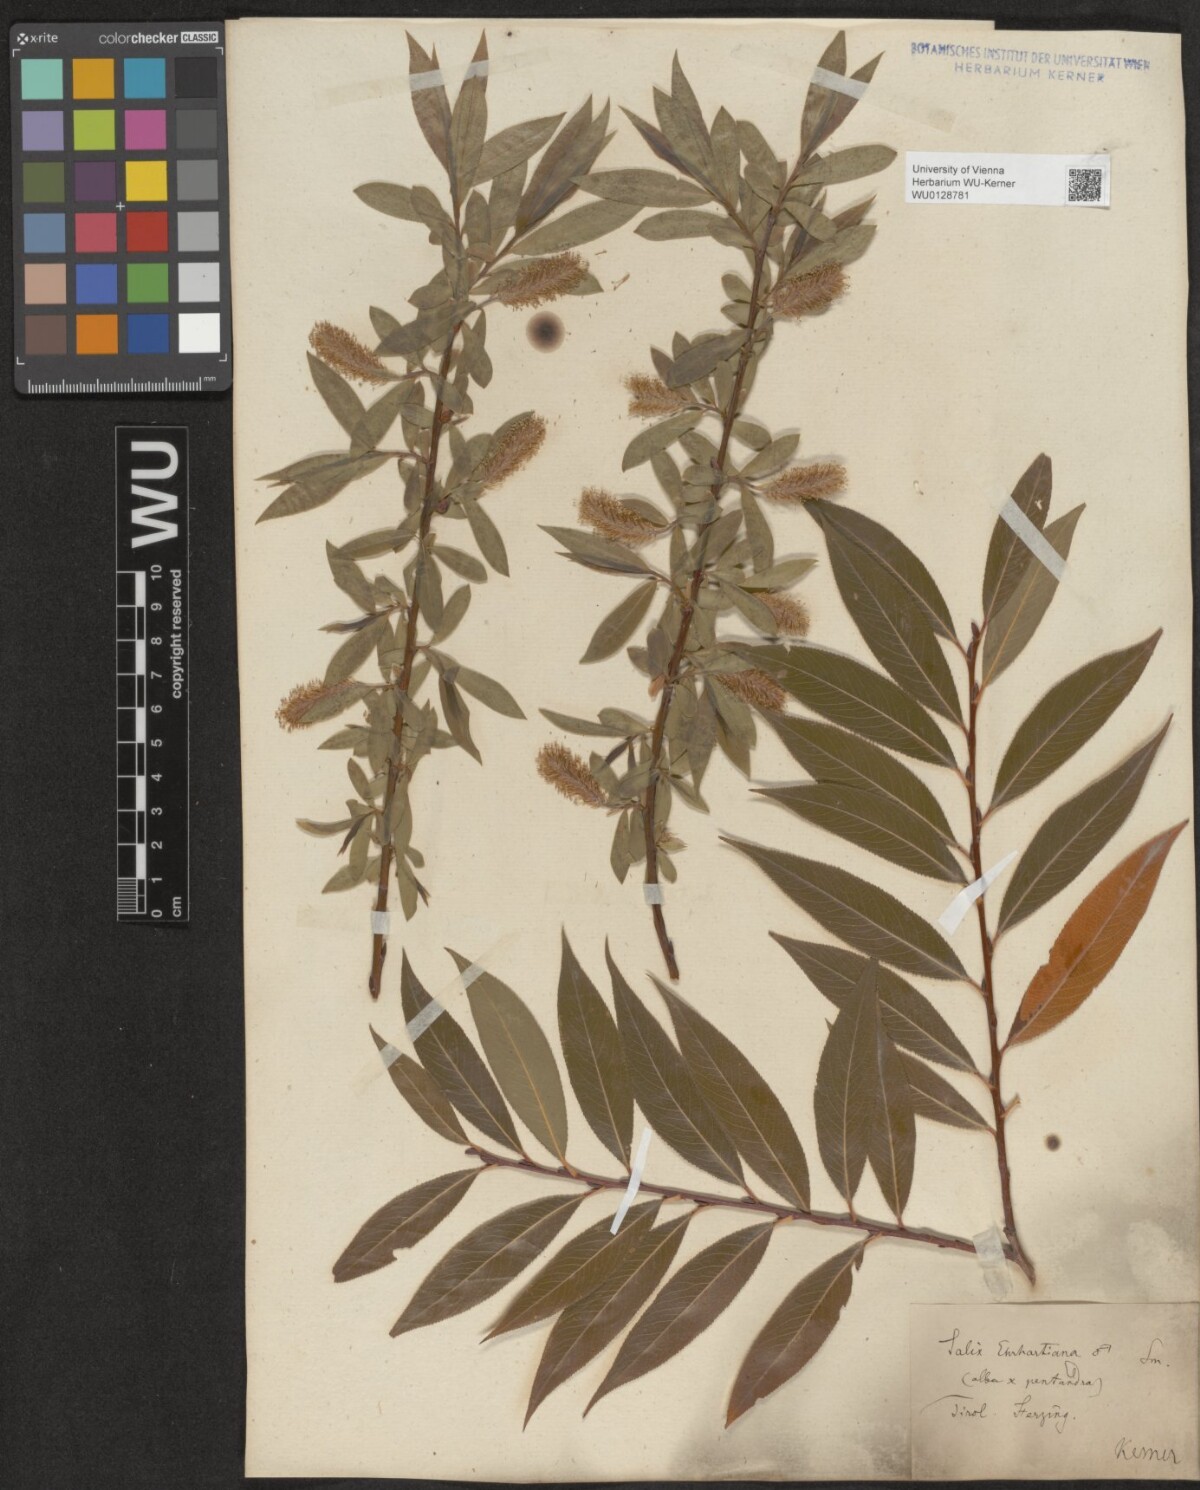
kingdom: Plantae
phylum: Tracheophyta
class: Magnoliopsida
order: Malpighiales
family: Salicaceae
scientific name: Salicaceae
